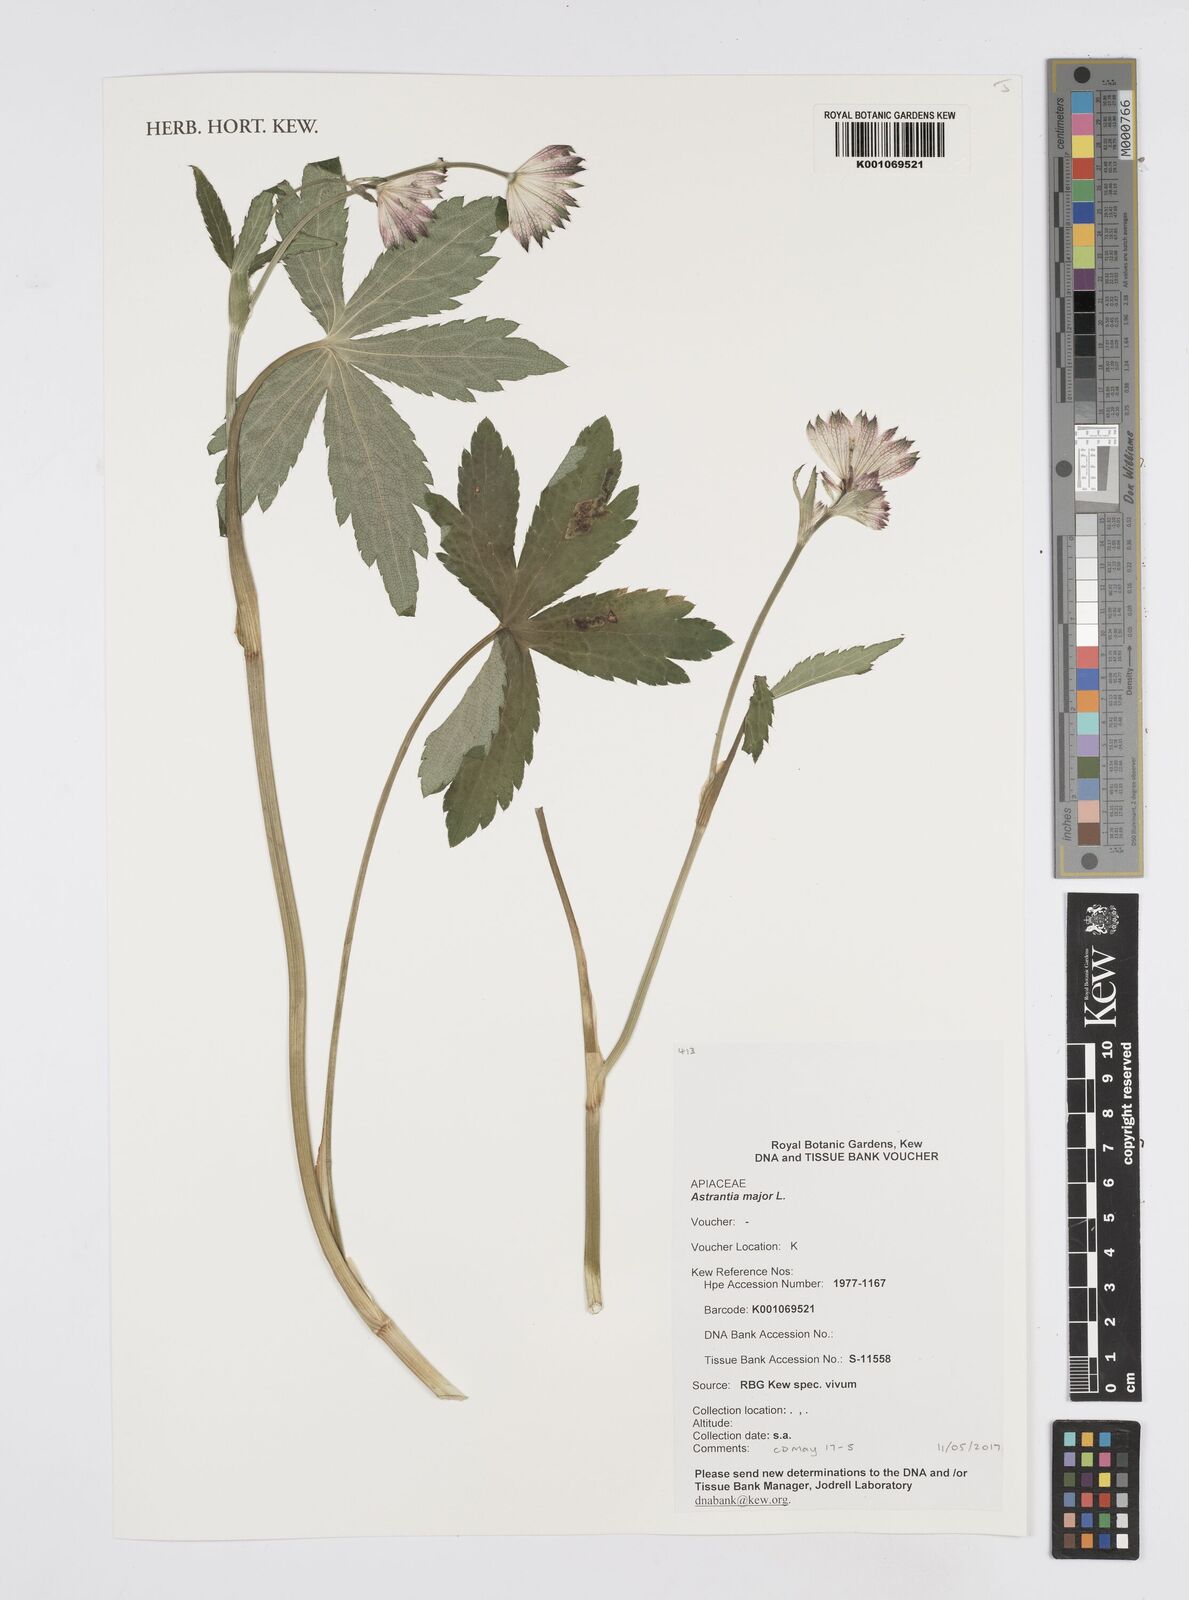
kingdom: Plantae
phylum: Tracheophyta
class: Magnoliopsida
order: Apiales
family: Apiaceae
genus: Astrantia
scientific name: Astrantia major
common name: Greater masterwort
